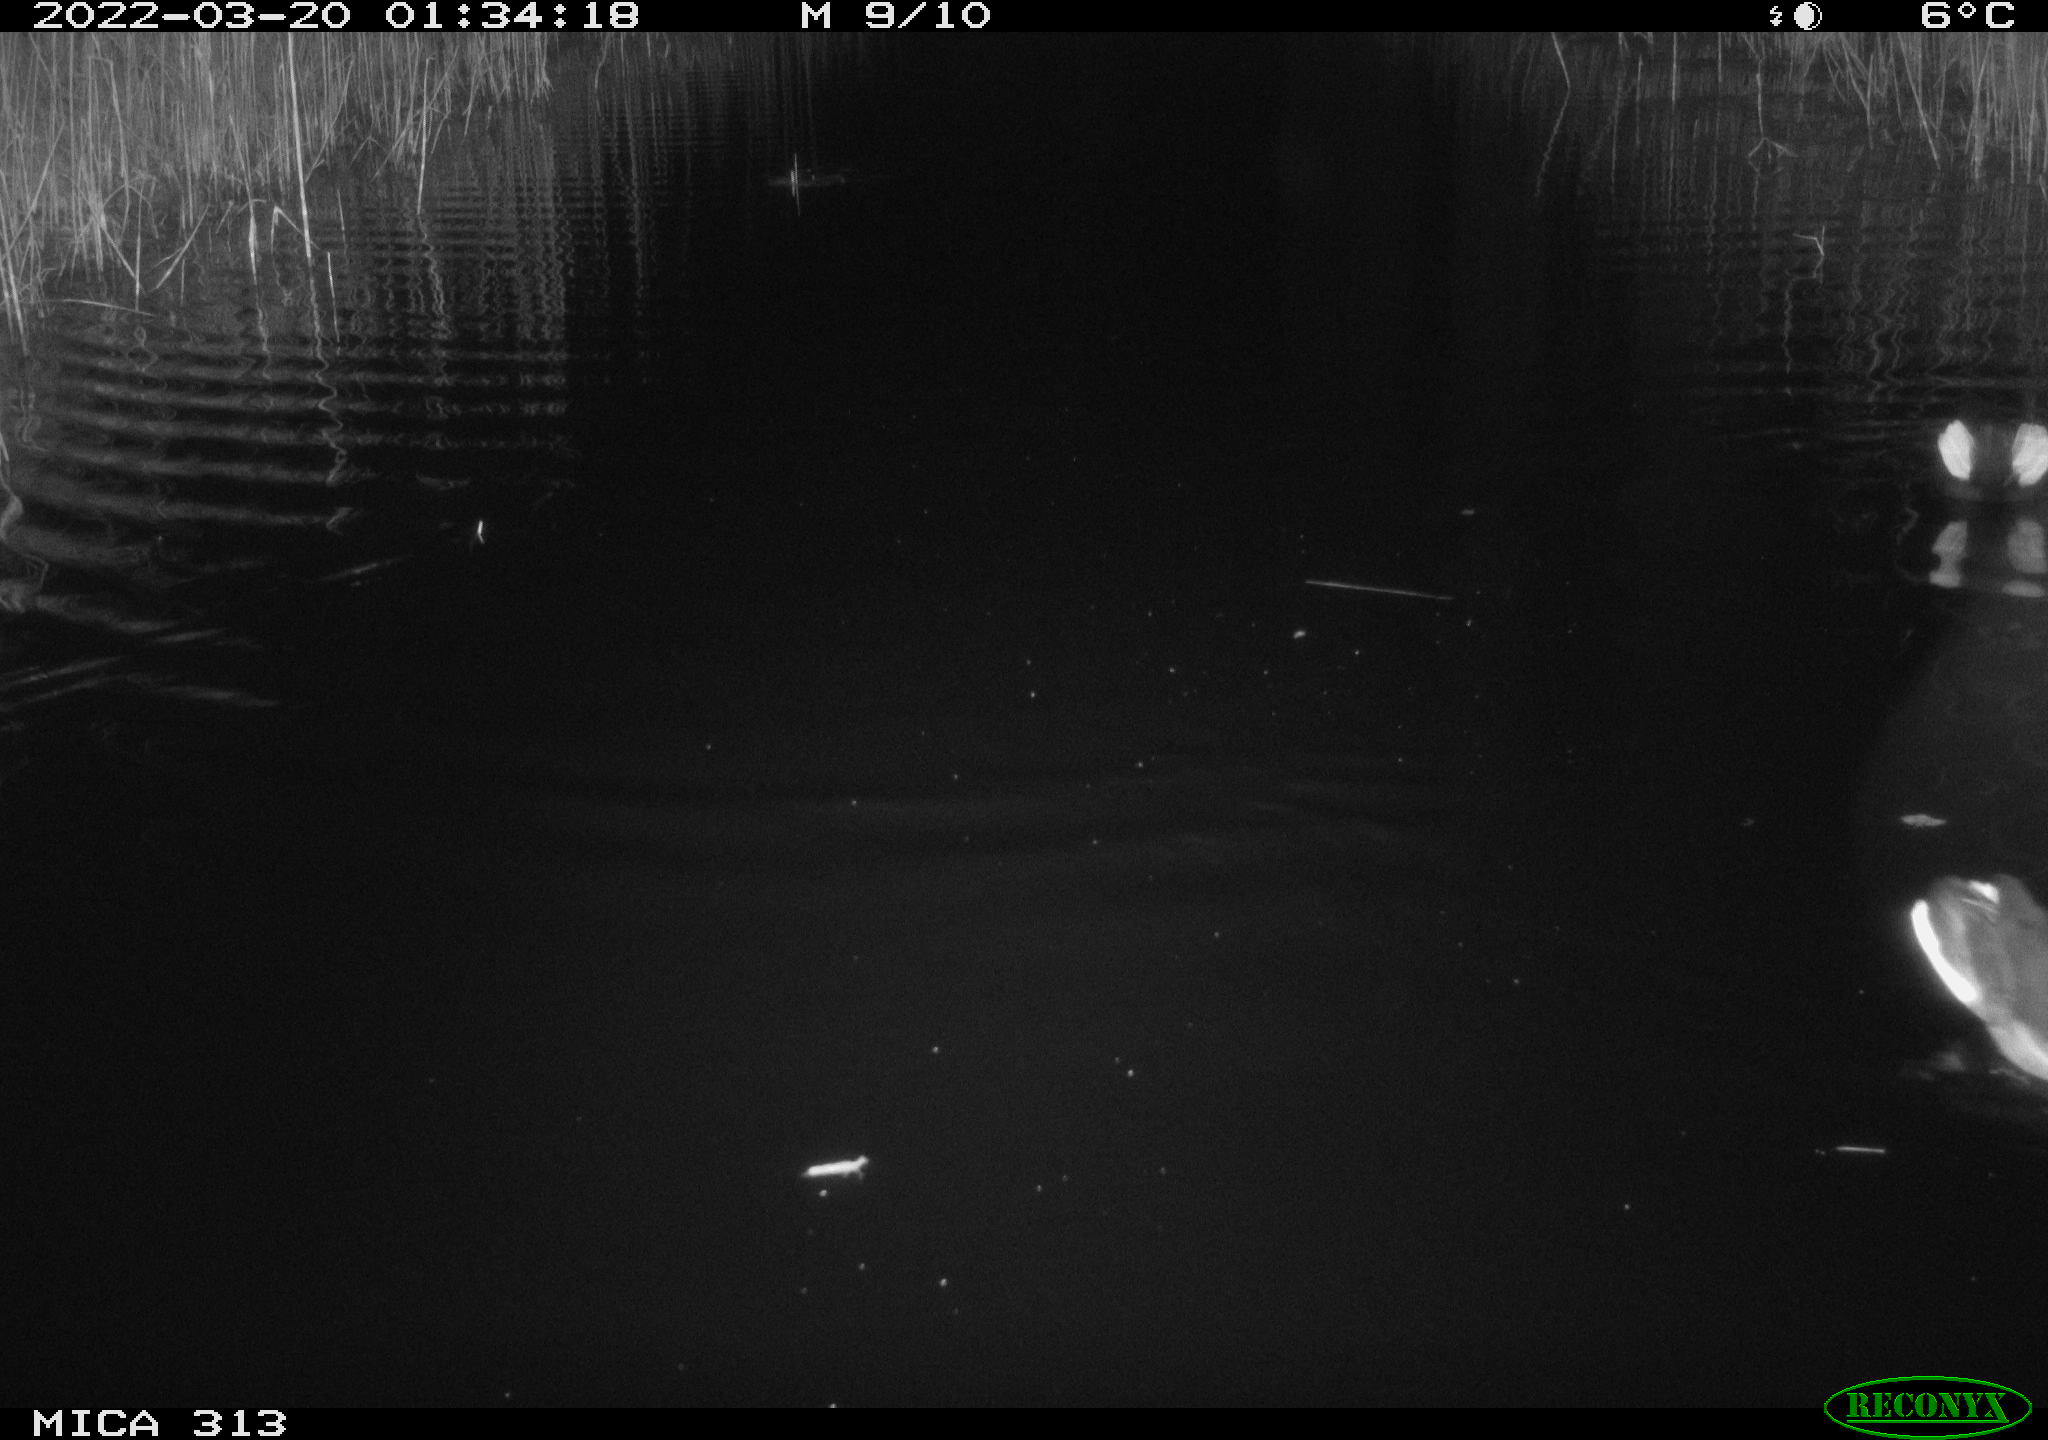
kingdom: Animalia
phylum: Chordata
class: Aves
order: Gruiformes
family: Rallidae
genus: Gallinula
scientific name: Gallinula chloropus
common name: Common moorhen
